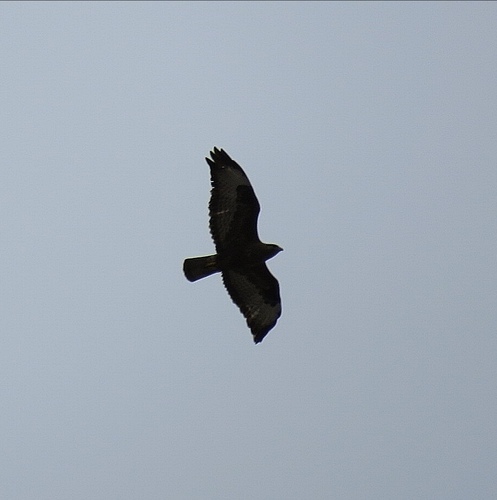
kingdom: Animalia
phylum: Chordata
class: Aves
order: Accipitriformes
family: Accipitridae
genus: Buteo
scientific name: Buteo buteo
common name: Common buzzard
